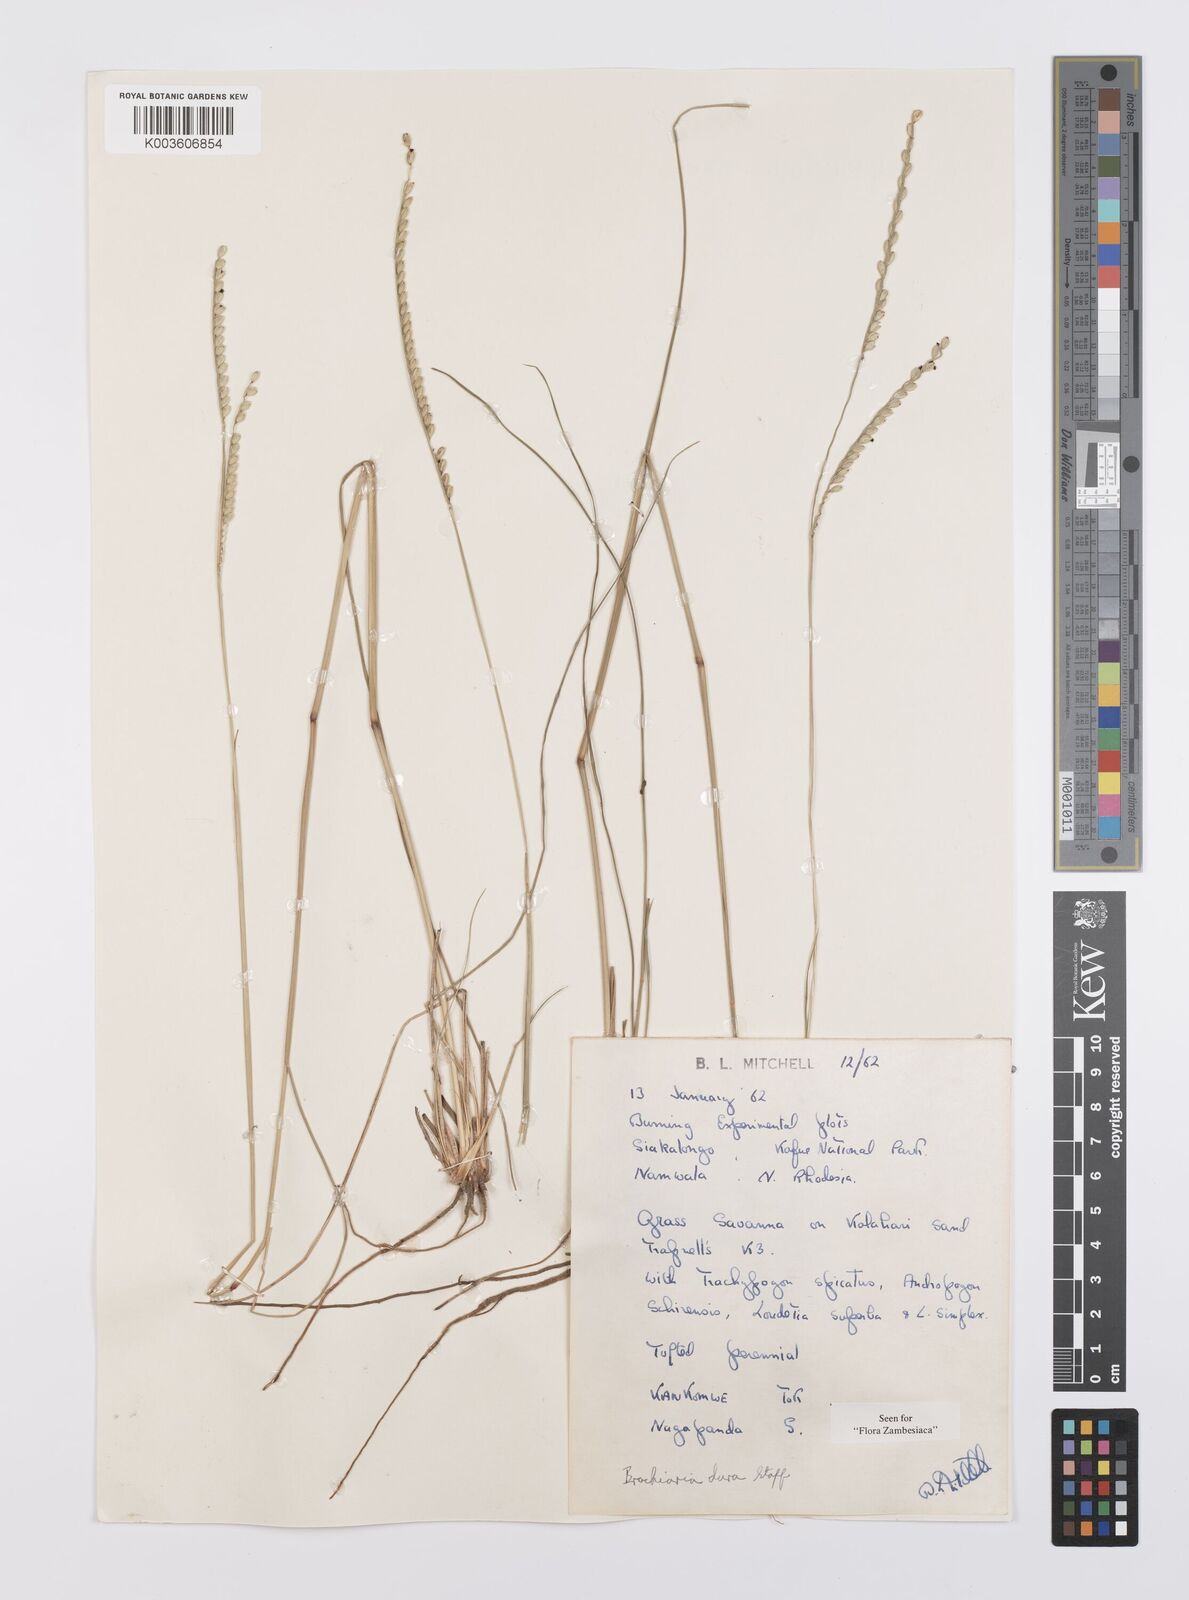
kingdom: Plantae
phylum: Tracheophyta
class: Liliopsida
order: Poales
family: Poaceae
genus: Urochloa
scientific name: Urochloa dura
